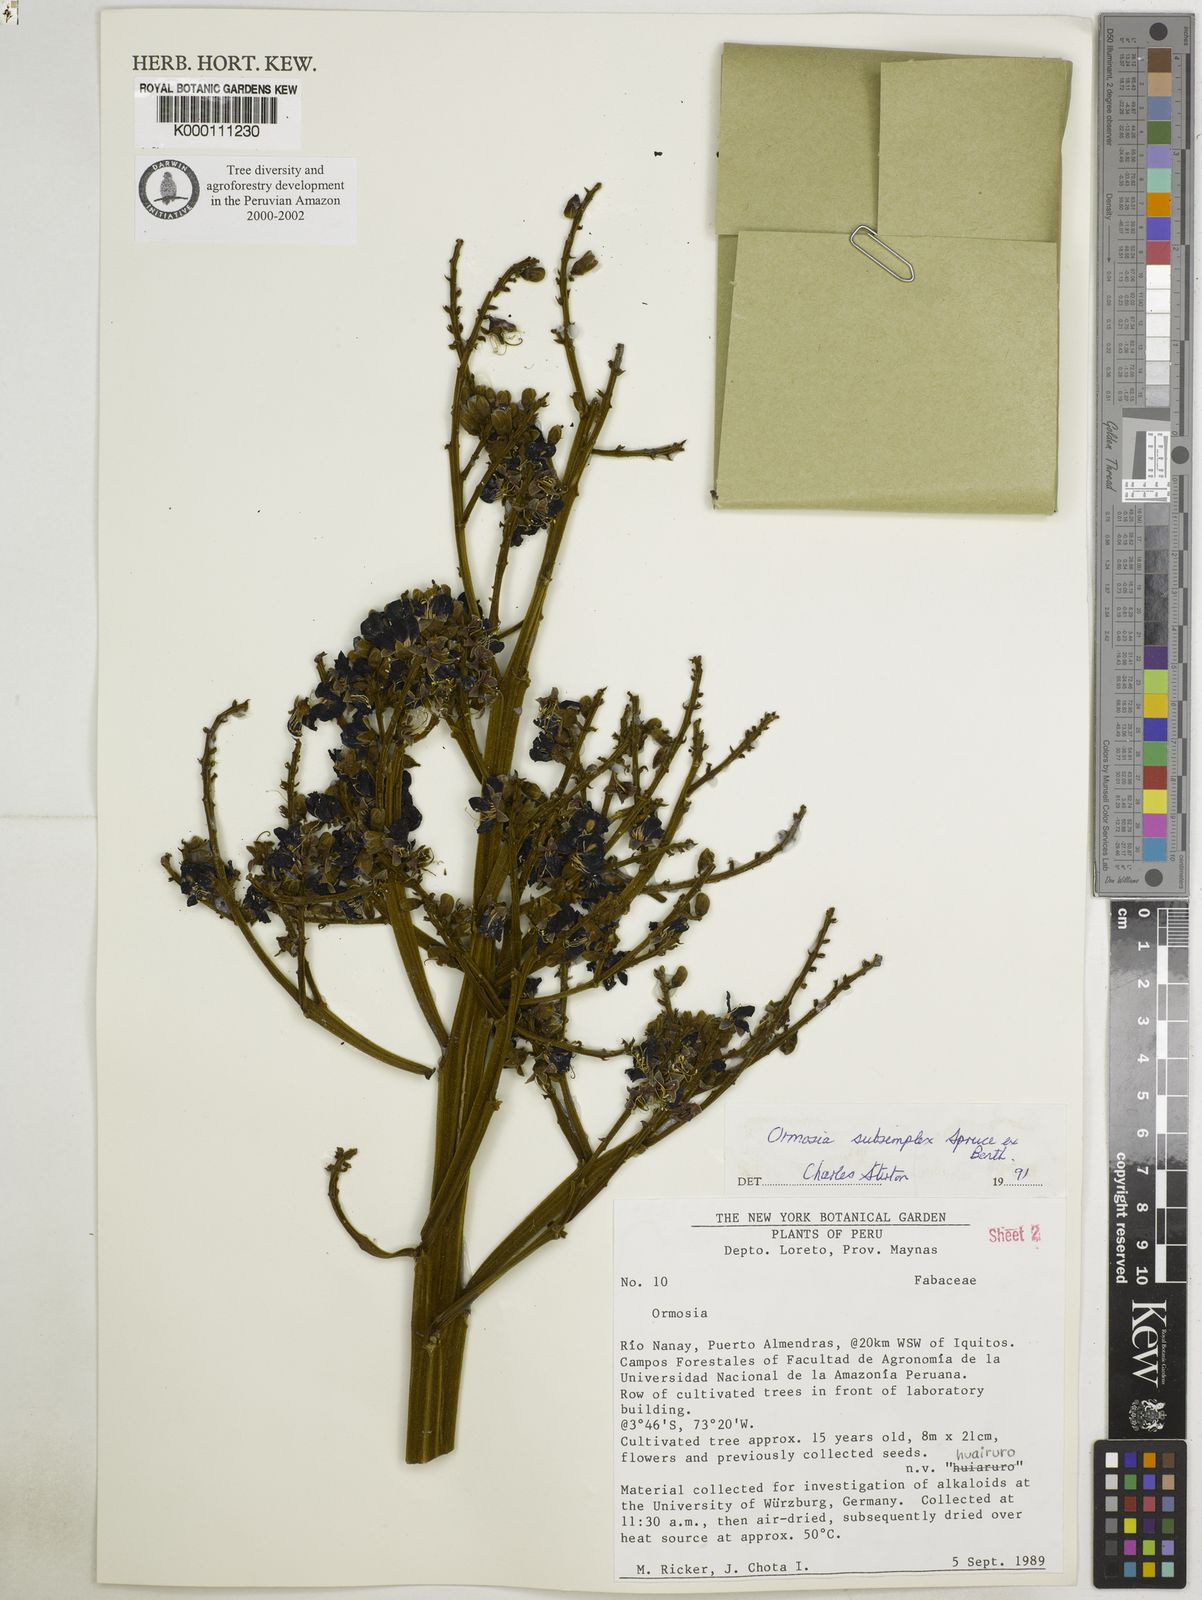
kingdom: Plantae
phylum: Tracheophyta
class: Magnoliopsida
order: Fabales
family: Fabaceae
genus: Ormosia
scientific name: Ormosia subsimplex
